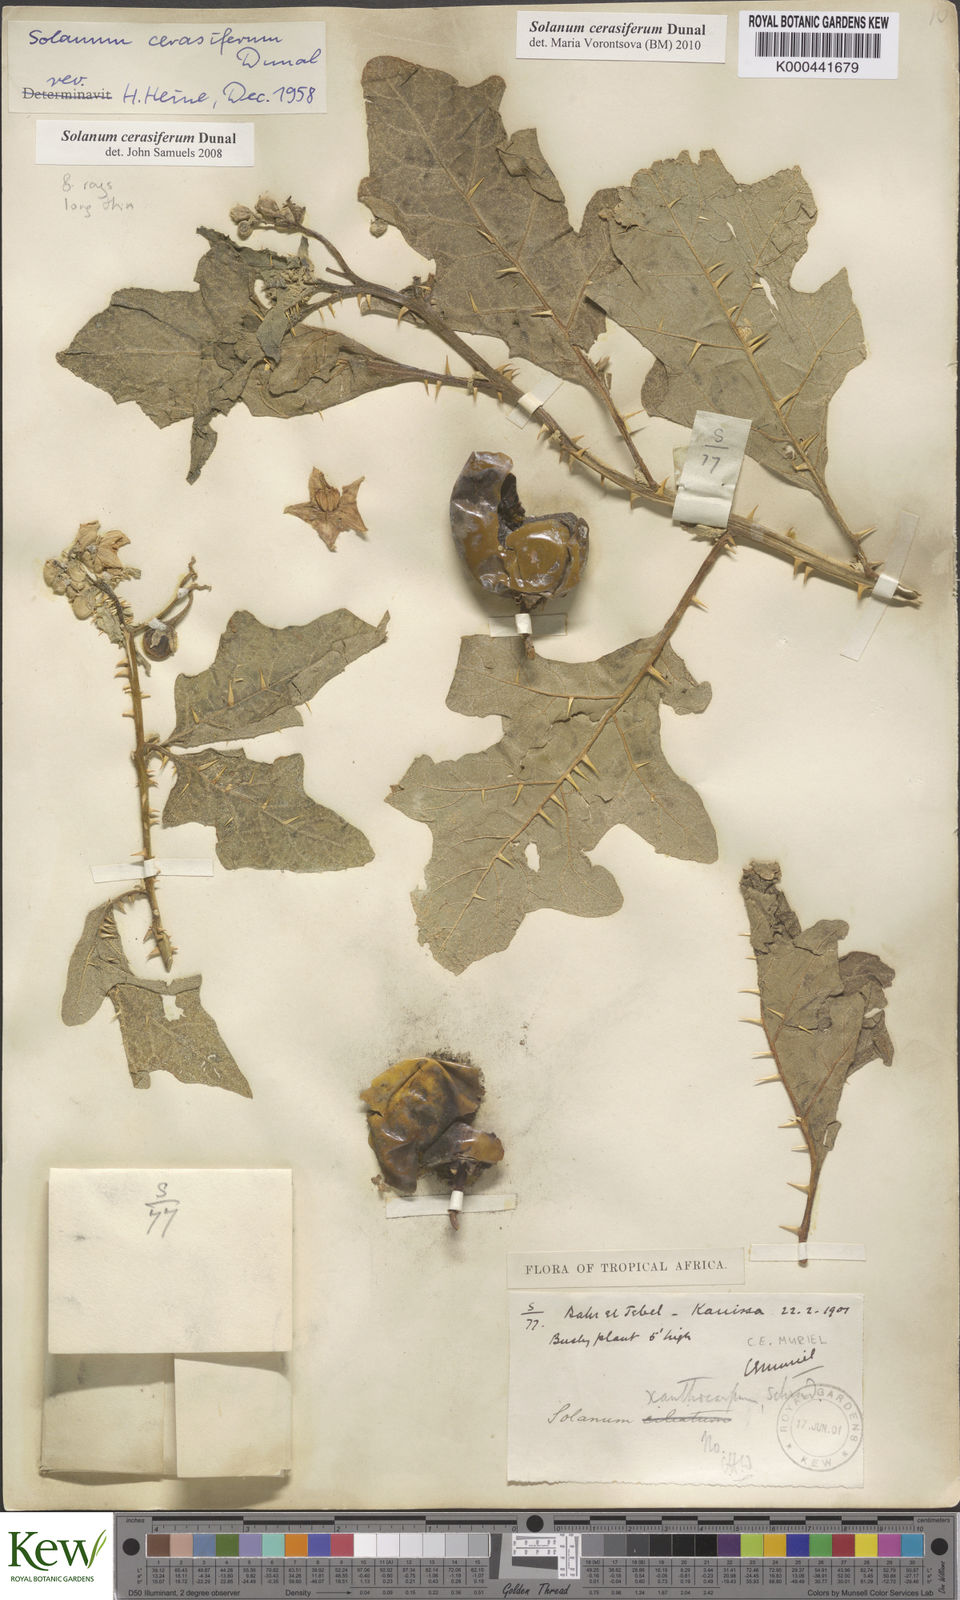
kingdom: Plantae
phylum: Tracheophyta
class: Magnoliopsida
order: Solanales
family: Solanaceae
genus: Solanum
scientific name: Solanum cerasiferum
